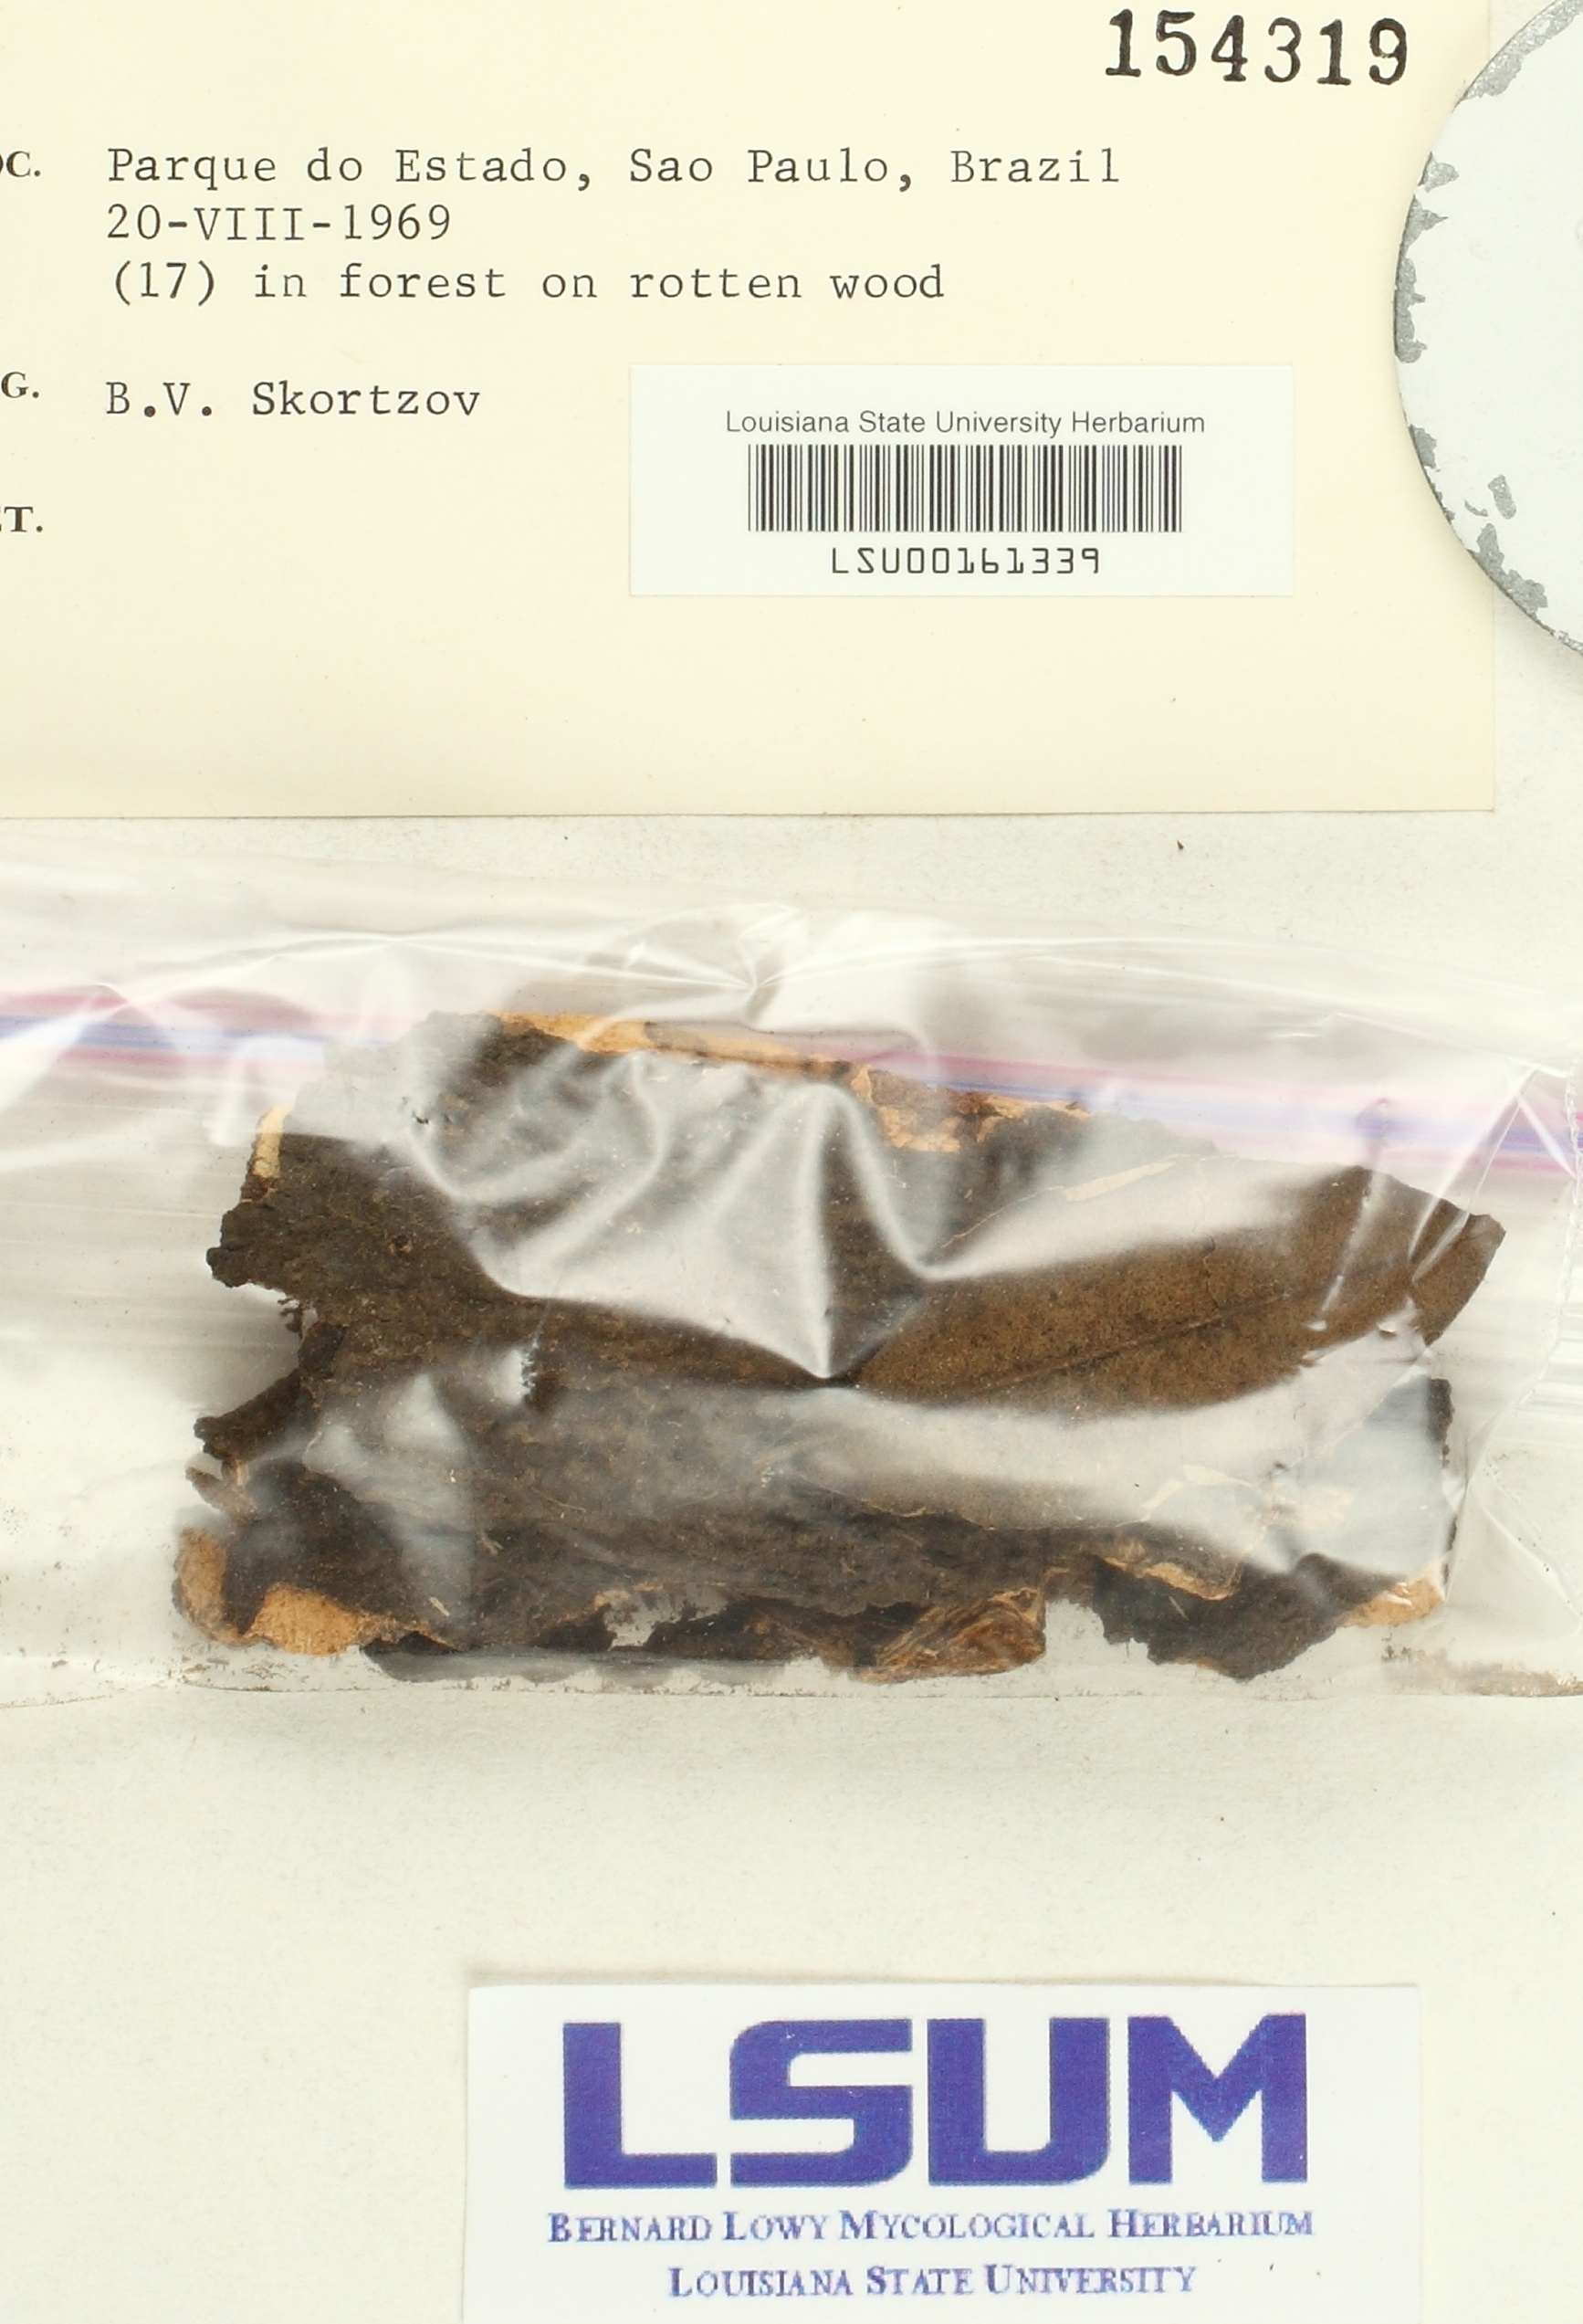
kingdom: Fungi
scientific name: Fungi
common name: Fungi
